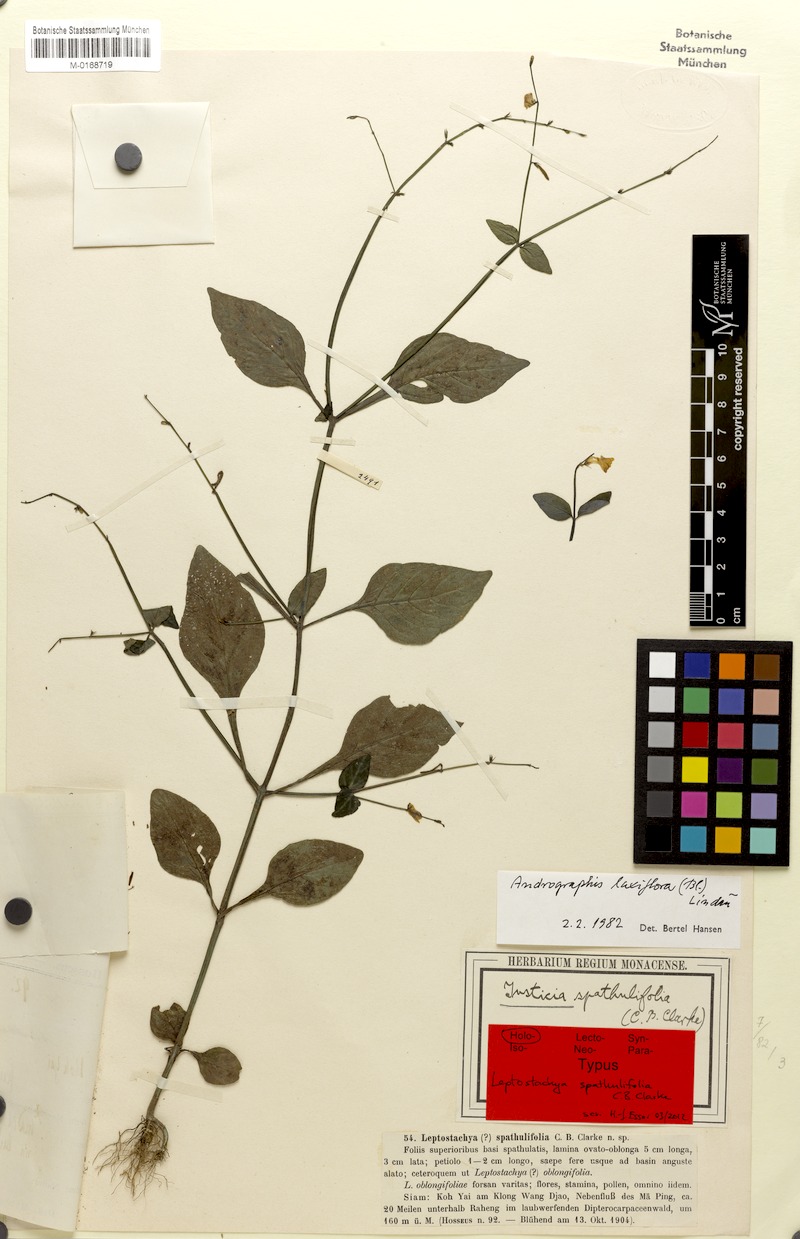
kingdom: Plantae
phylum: Tracheophyta
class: Magnoliopsida
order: Lamiales
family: Acanthaceae
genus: Haplanthus
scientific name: Haplanthus laxiflorus
